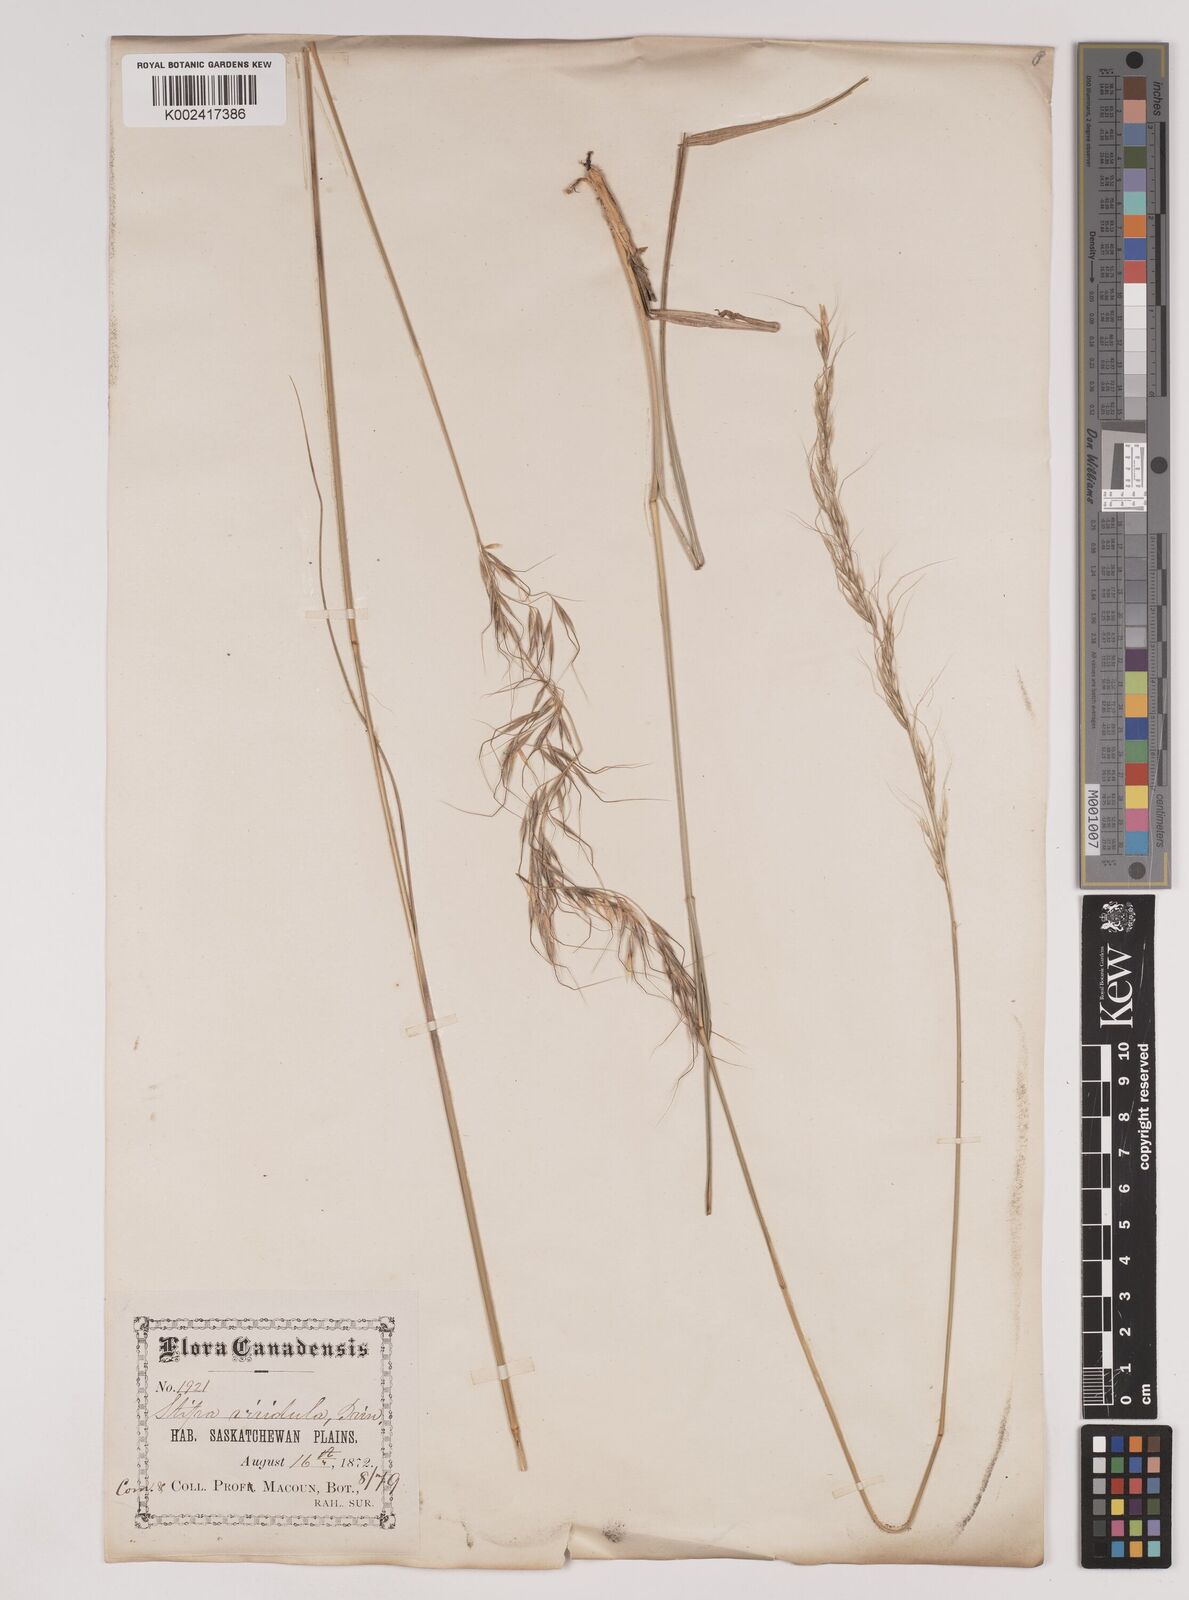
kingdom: Plantae
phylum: Tracheophyta
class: Liliopsida
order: Poales
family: Poaceae
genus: Nassella
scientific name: Nassella viridula
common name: Green needlegrass
